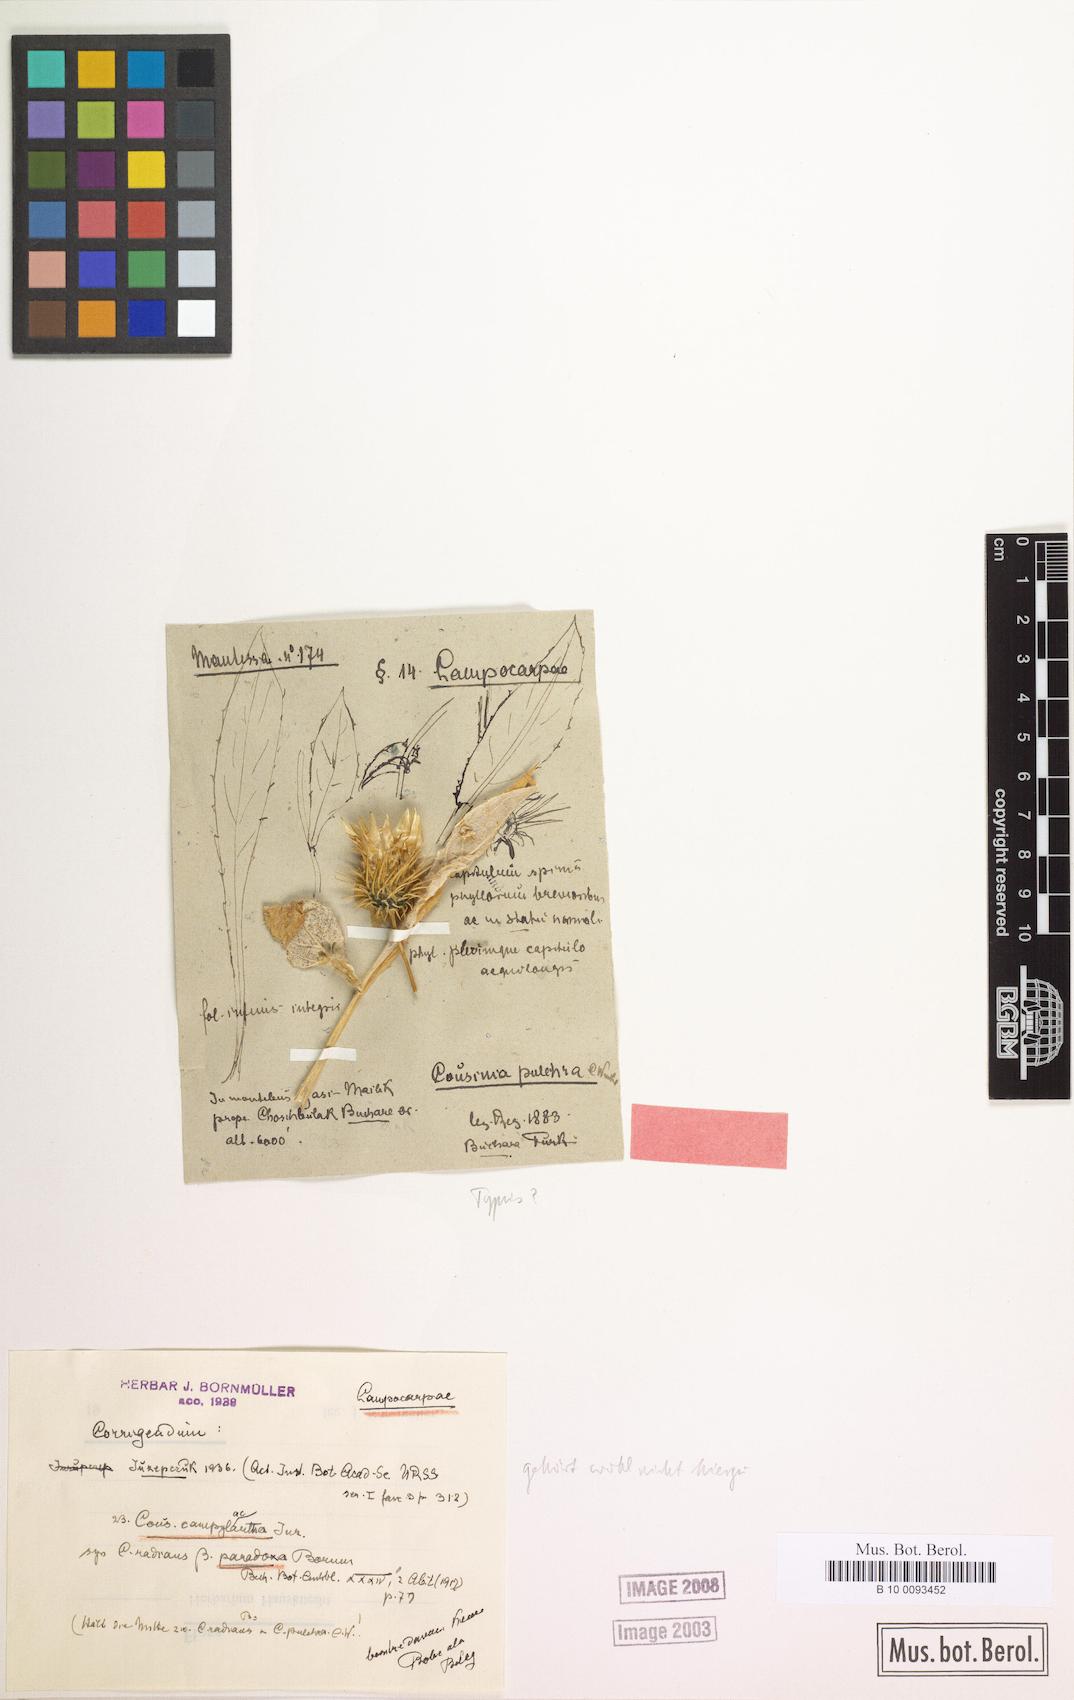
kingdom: Plantae
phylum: Tracheophyta
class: Magnoliopsida
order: Asterales
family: Asteraceae
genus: Cousinia
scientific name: Cousinia pulchra
